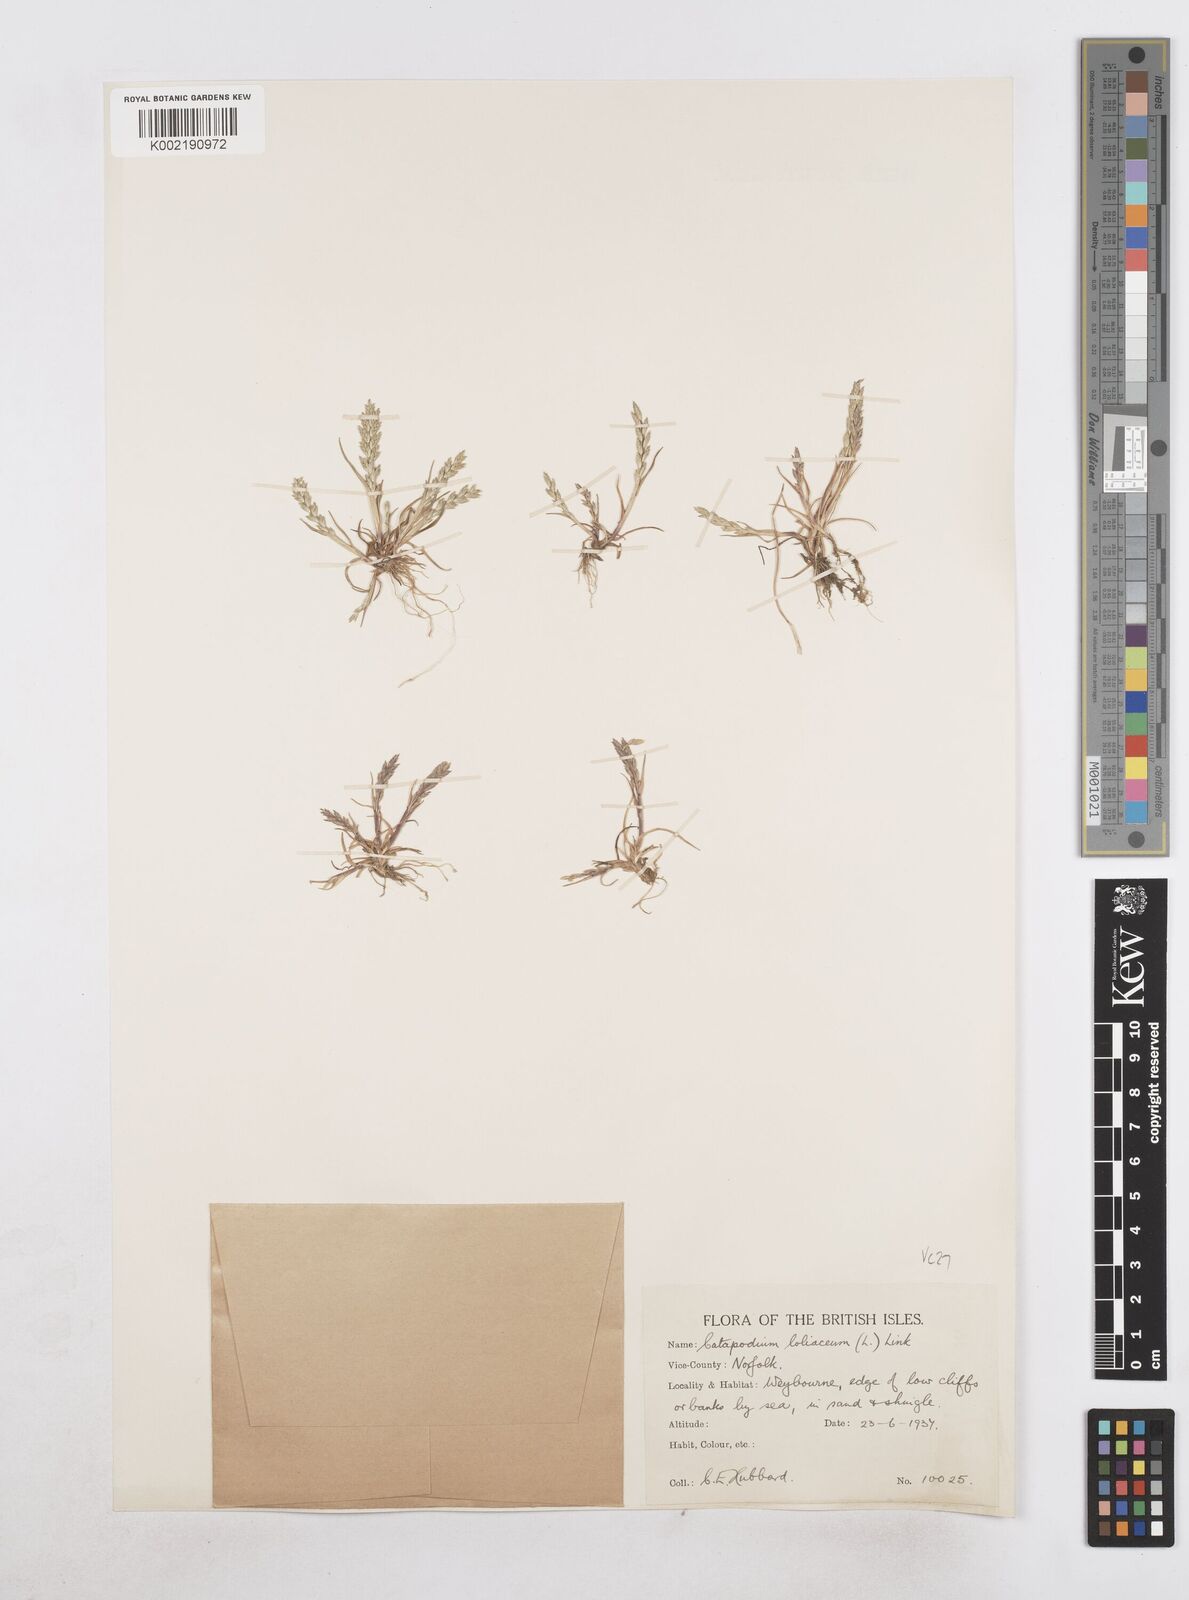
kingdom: Plantae
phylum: Tracheophyta
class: Liliopsida
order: Poales
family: Poaceae
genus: Catapodium
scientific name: Catapodium marinum
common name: Sea fern-grass
